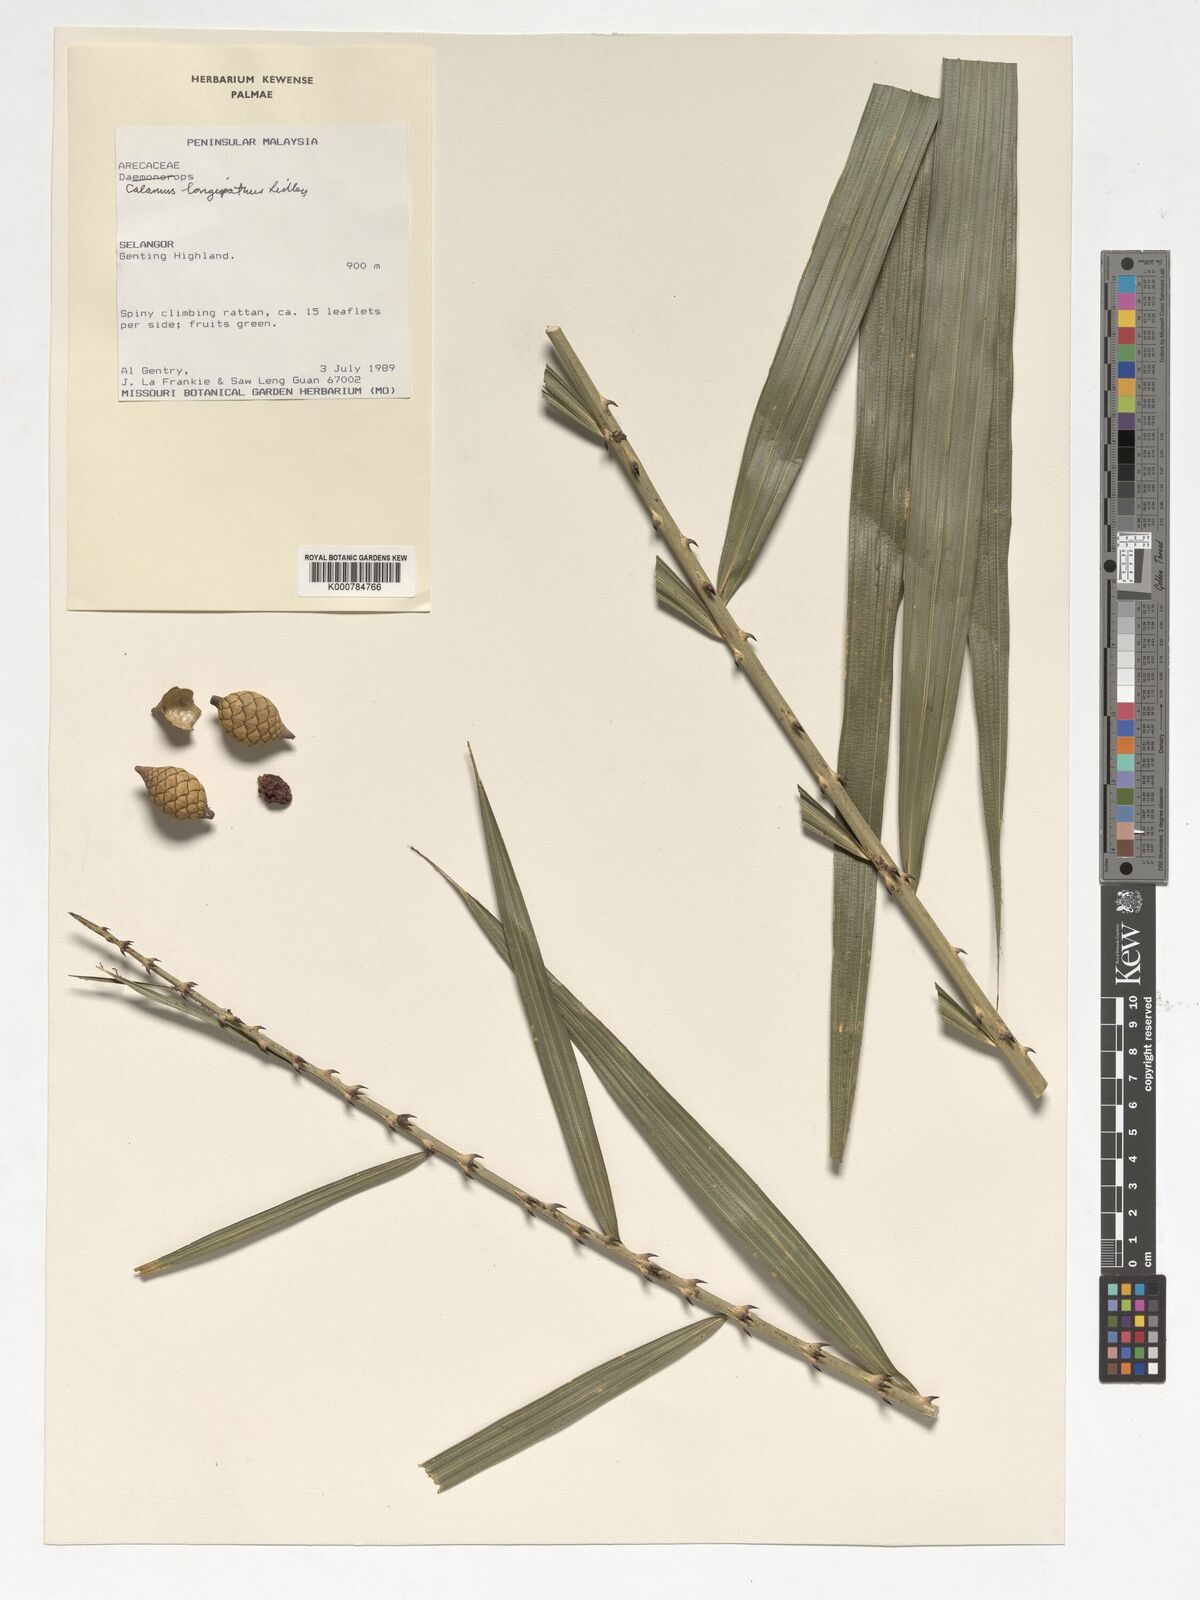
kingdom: Plantae
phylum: Tracheophyta
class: Liliopsida
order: Arecales
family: Arecaceae
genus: Calamus
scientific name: Calamus longispatha
